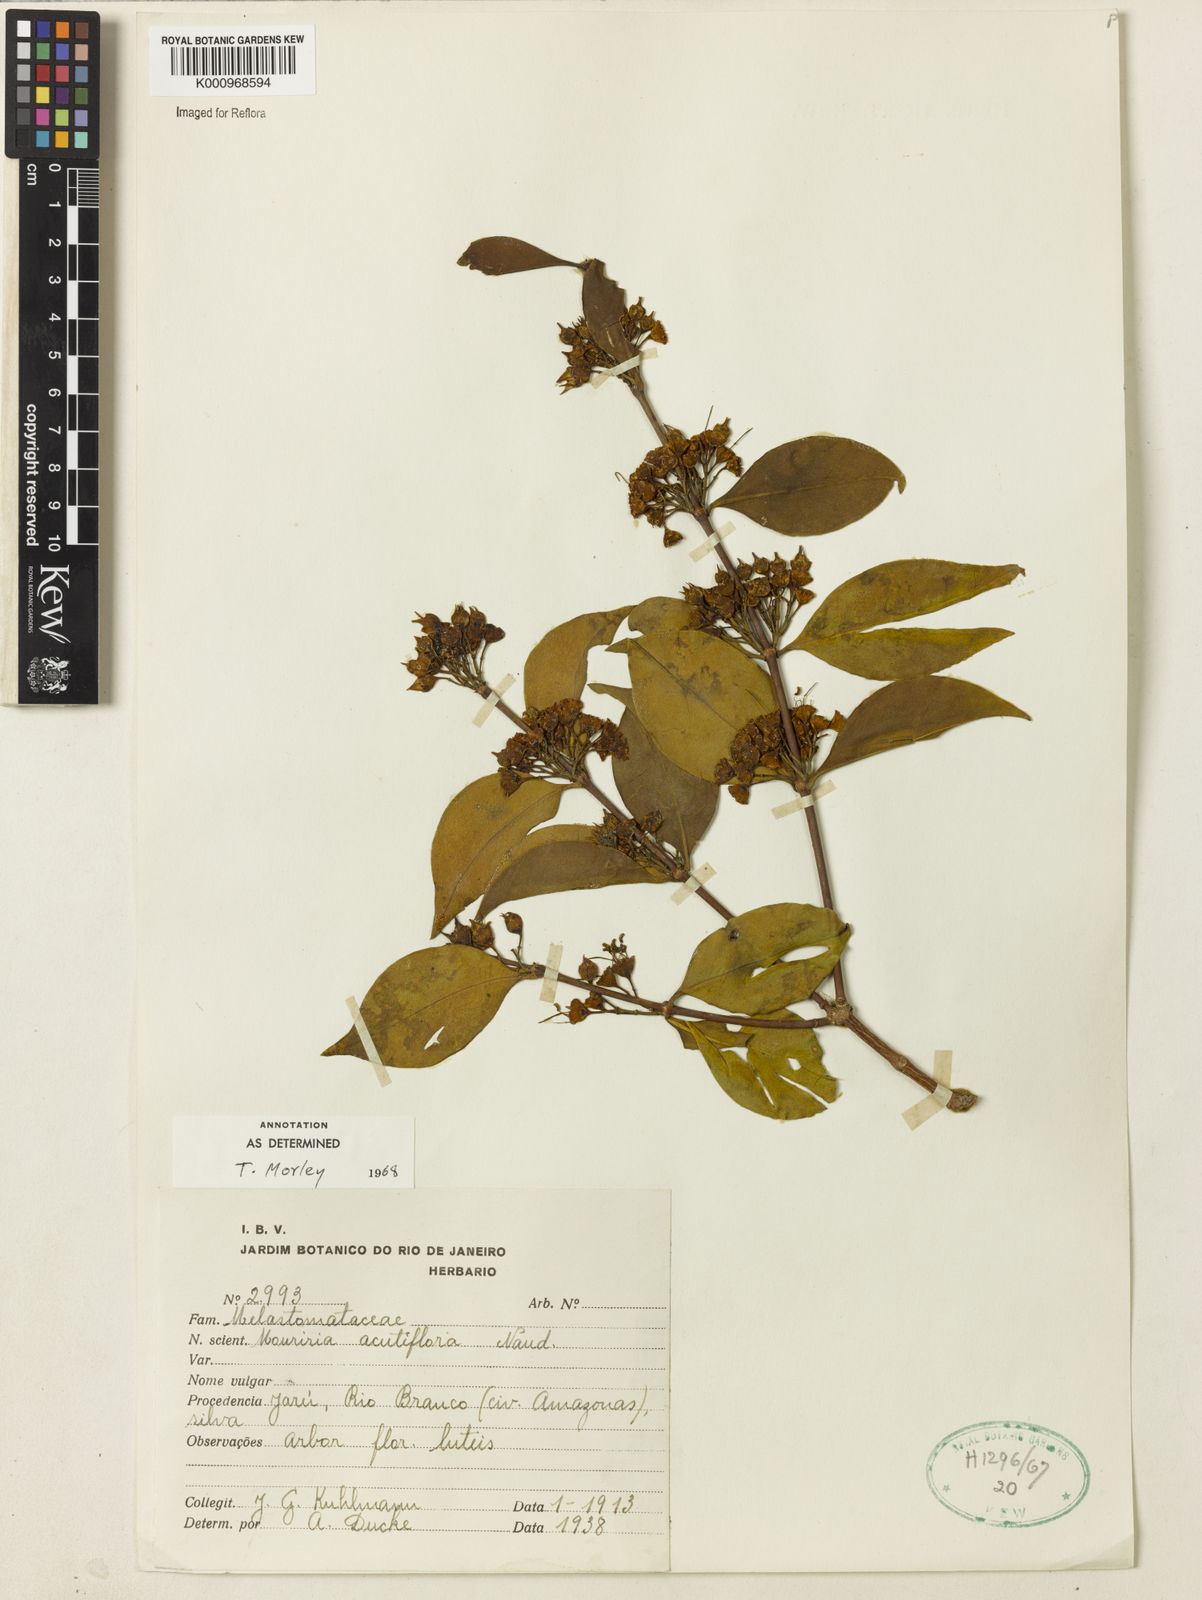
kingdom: Plantae
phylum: Tracheophyta
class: Magnoliopsida
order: Myrtales
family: Melastomataceae
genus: Mouriri
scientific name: Mouriri acutiflora
